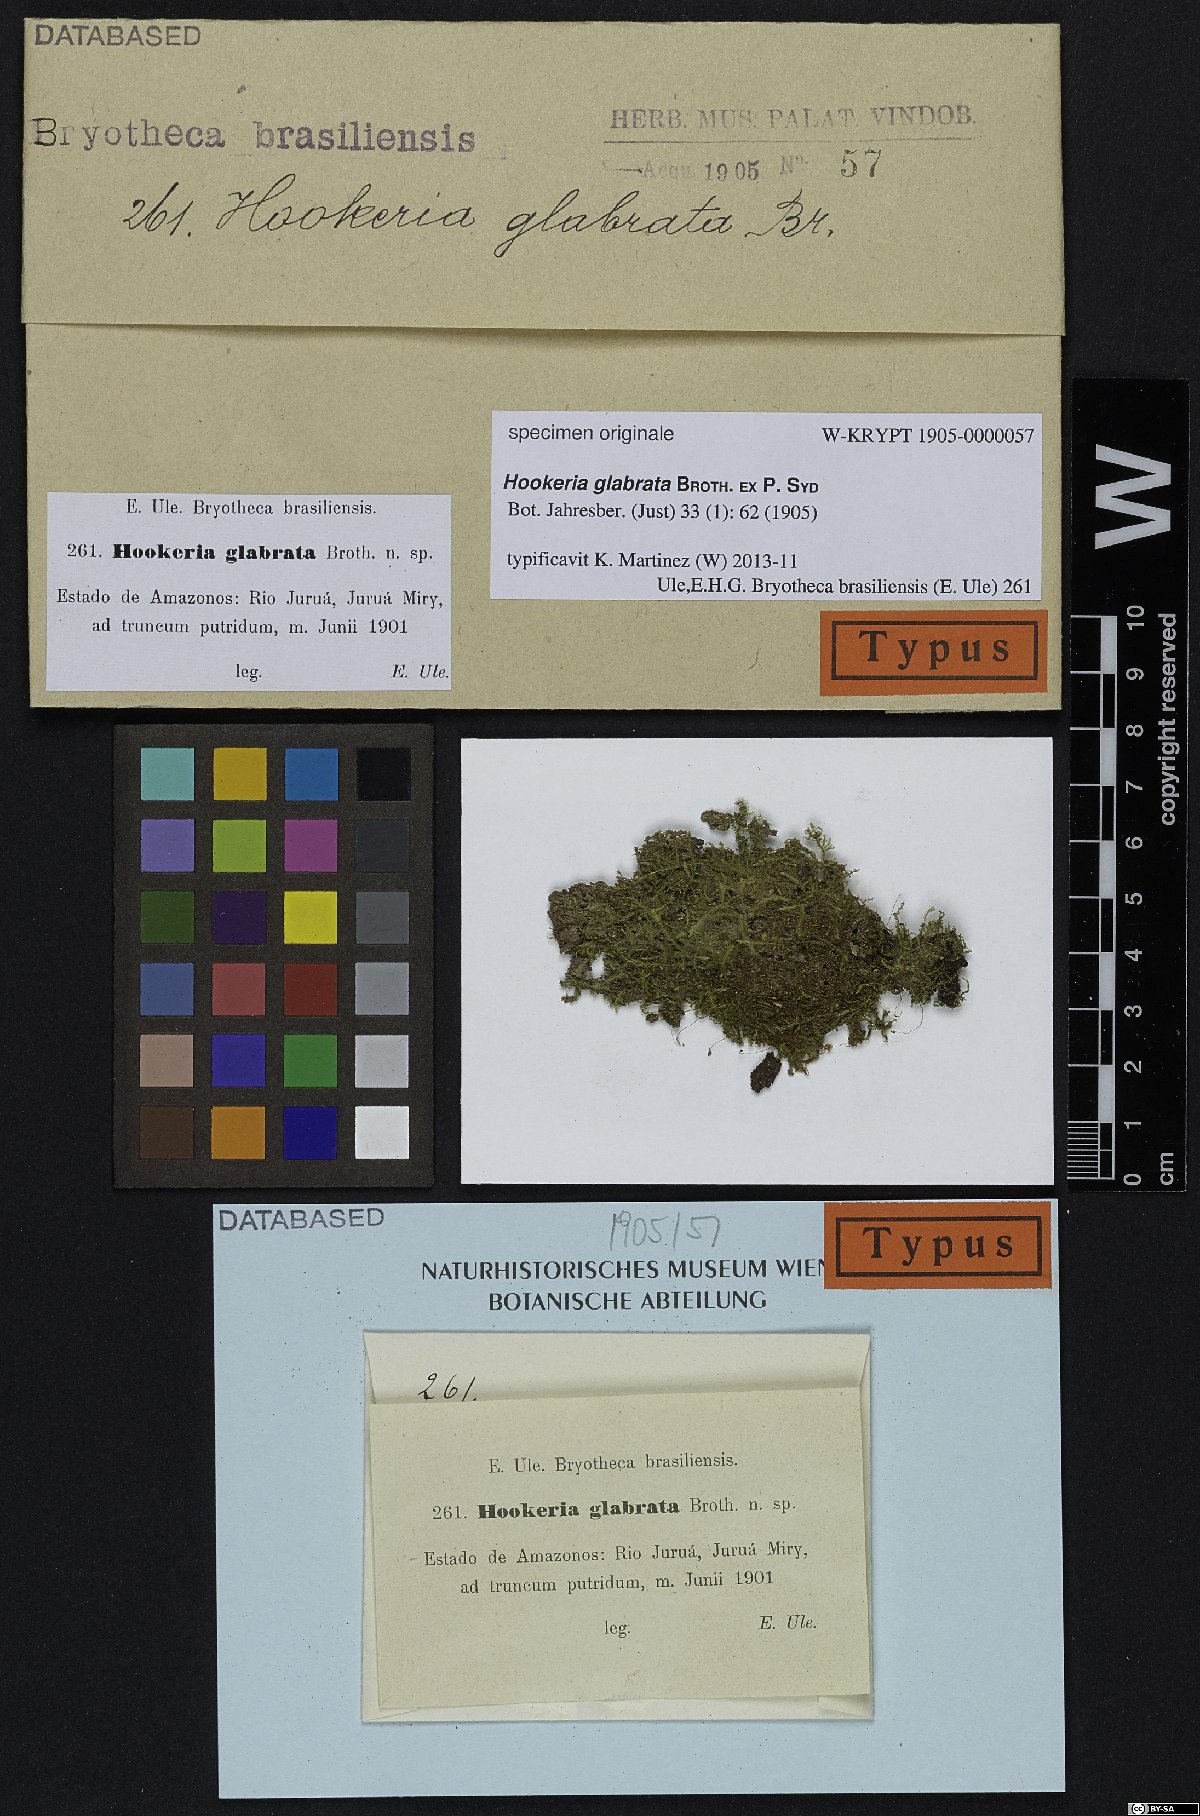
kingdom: Plantae
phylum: Bryophyta
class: Bryopsida
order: Hookeriales
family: Hookeriaceae
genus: Hookeria
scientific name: Hookeria
